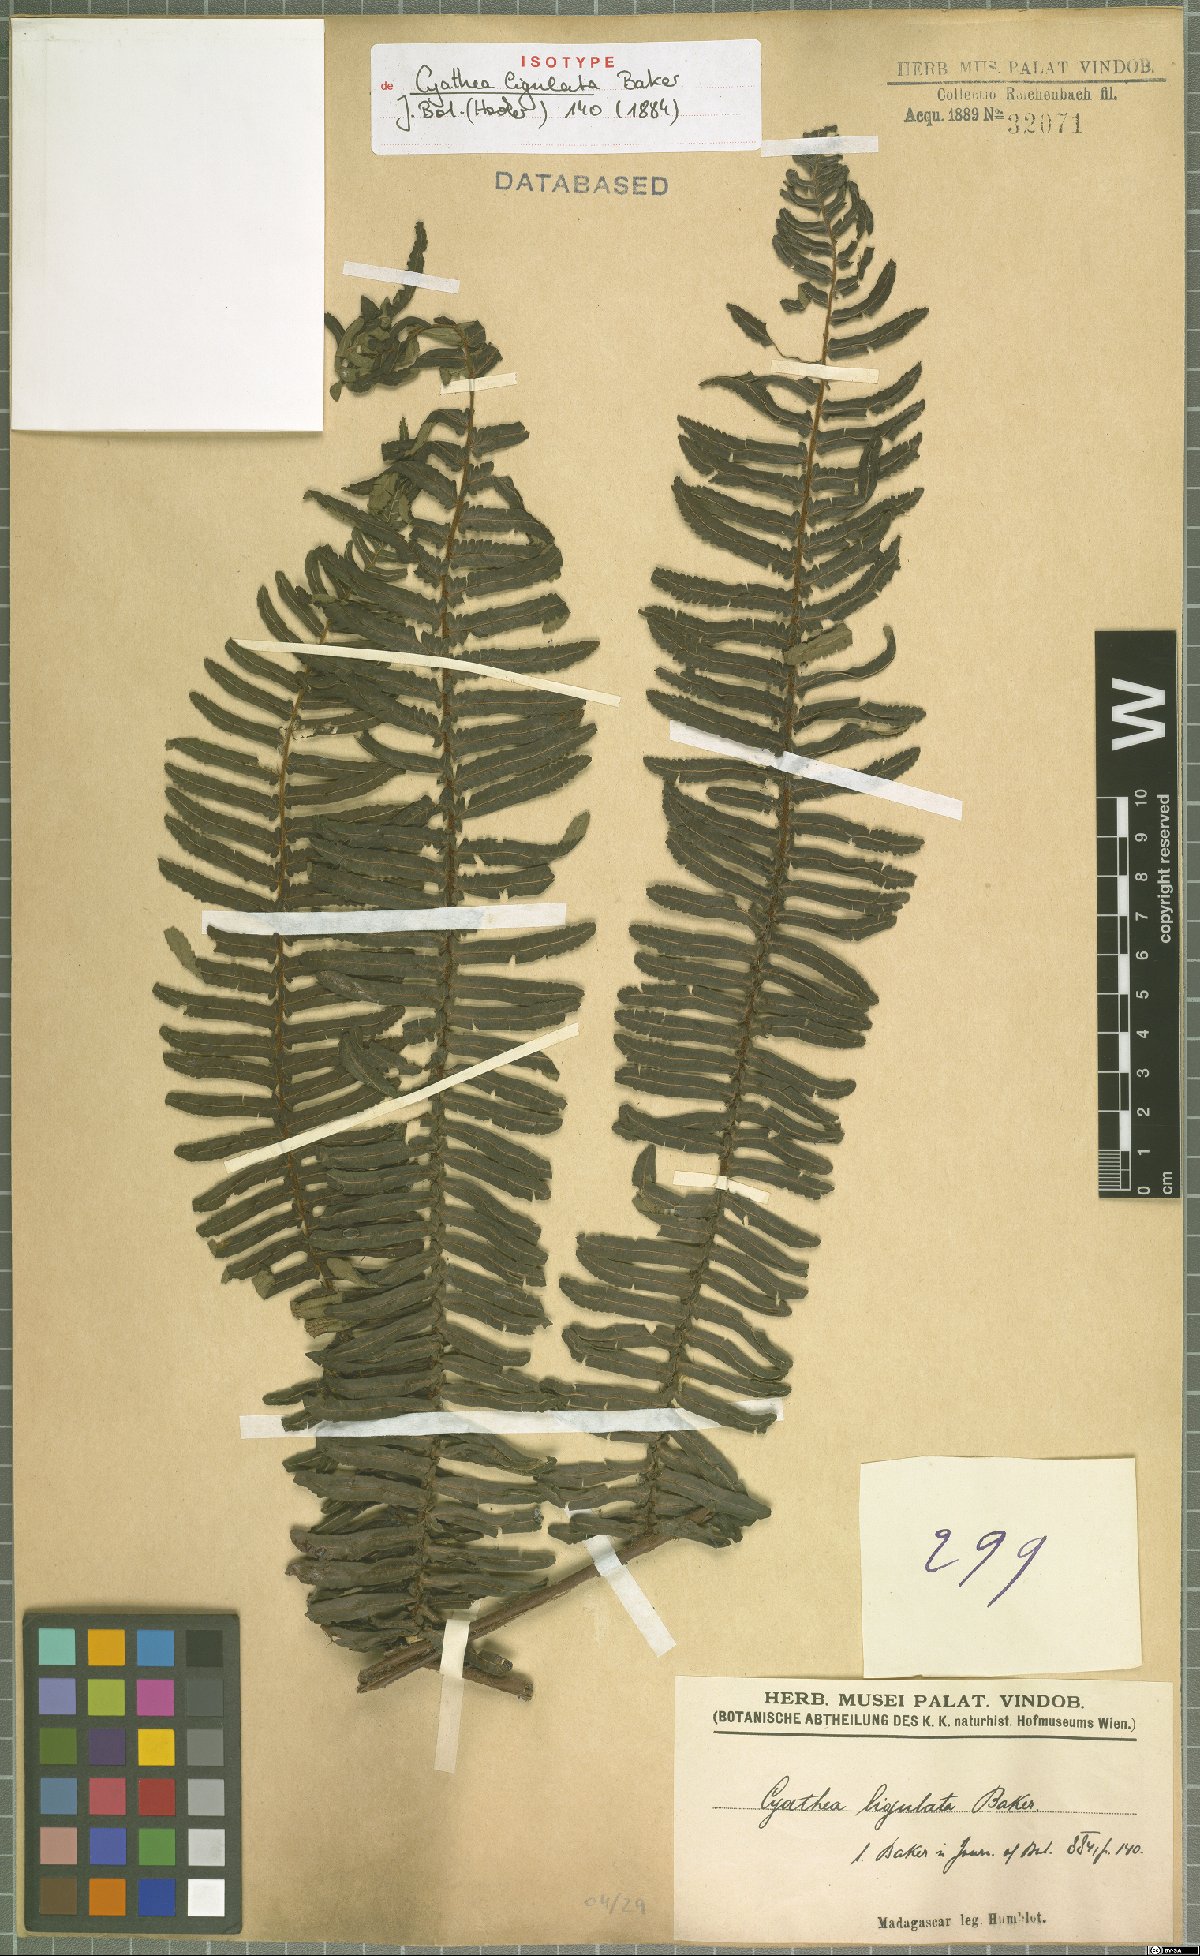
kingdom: Plantae
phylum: Tracheophyta
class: Polypodiopsida
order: Cyatheales
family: Cyatheaceae
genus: Alsophila
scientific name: Alsophila ligulata
